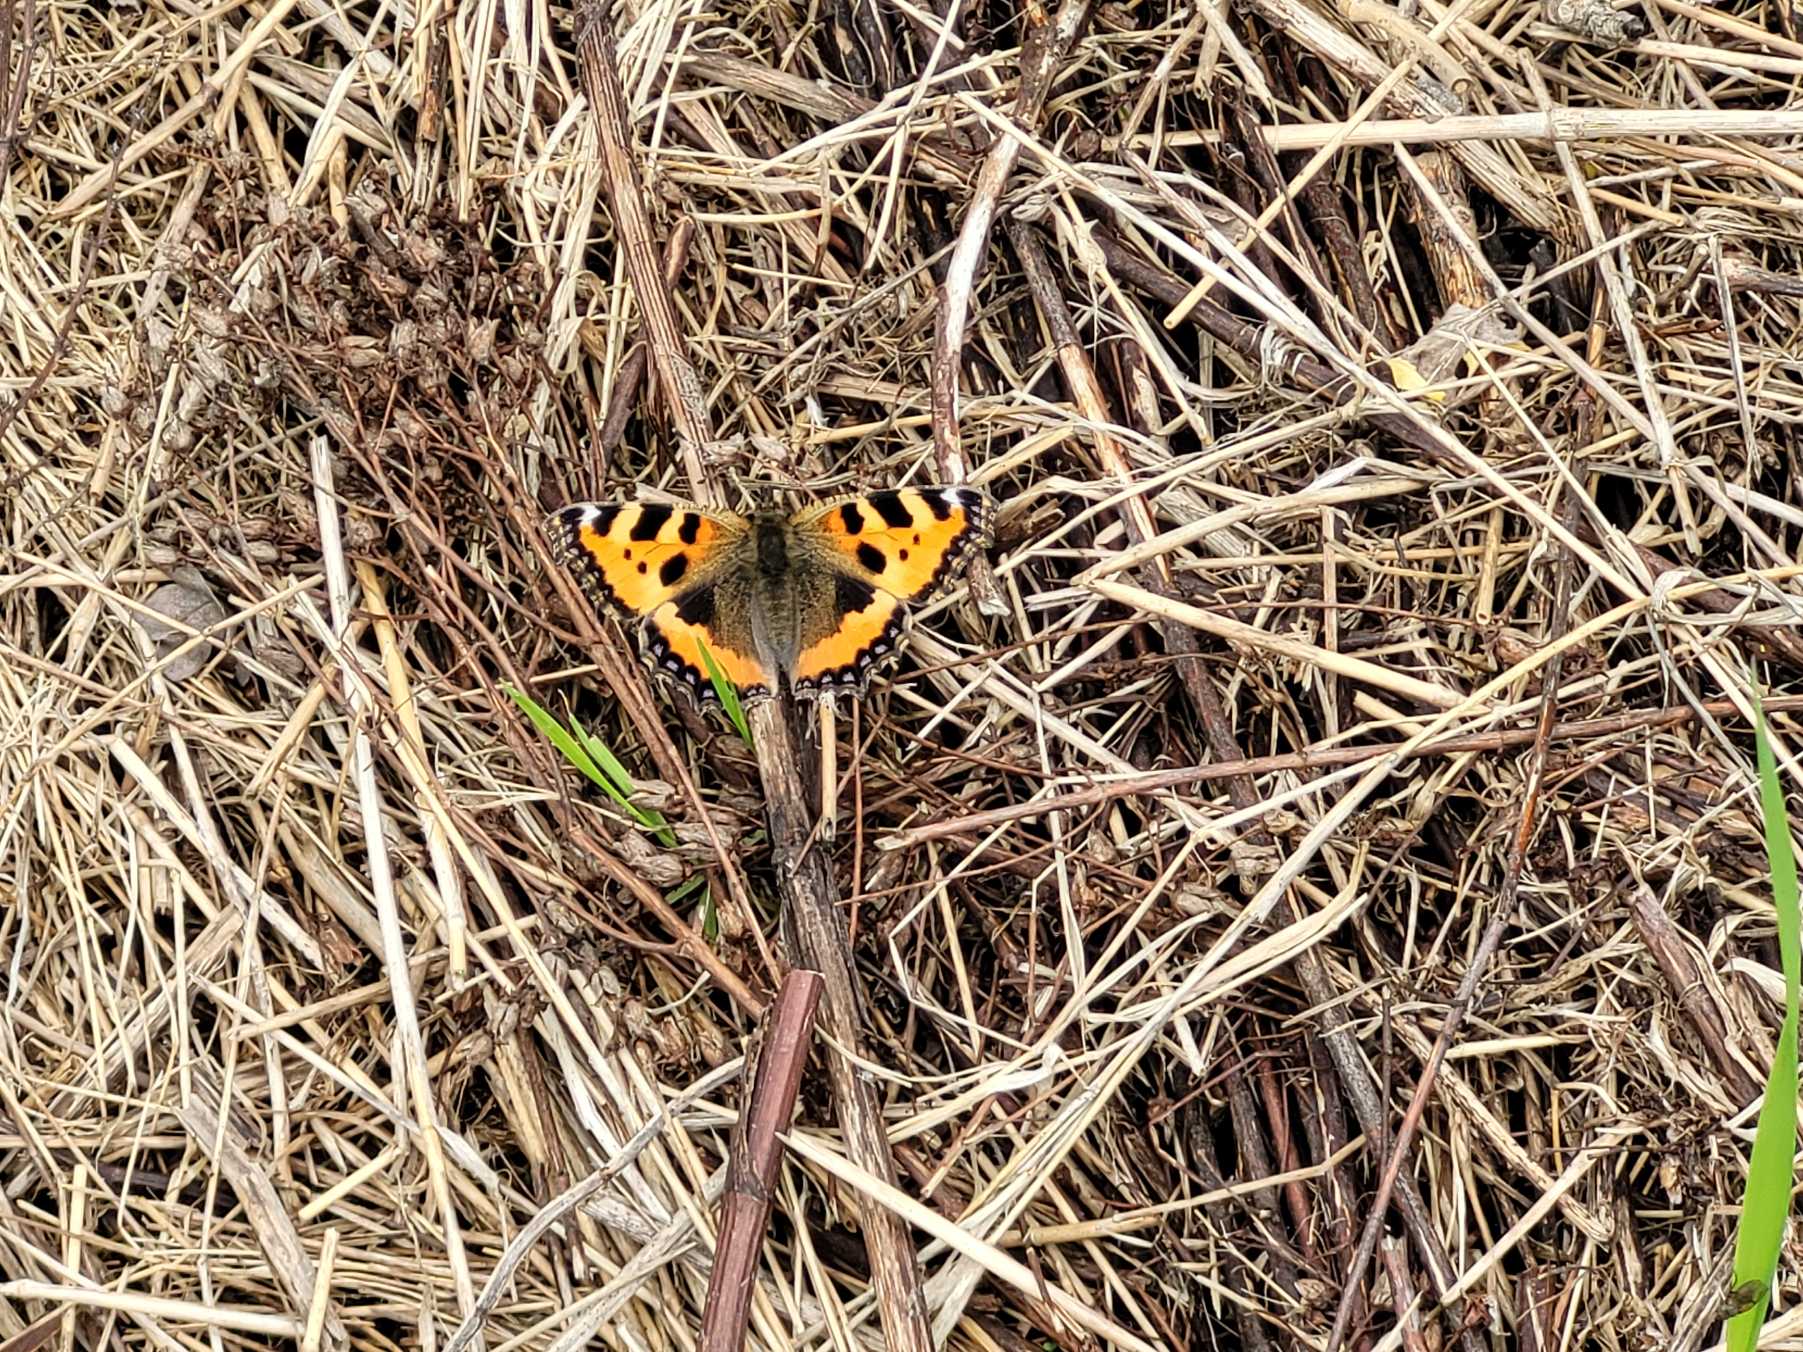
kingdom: Animalia
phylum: Arthropoda
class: Insecta
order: Lepidoptera
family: Nymphalidae
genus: Aglais
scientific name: Aglais urticae
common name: Nældens takvinge
